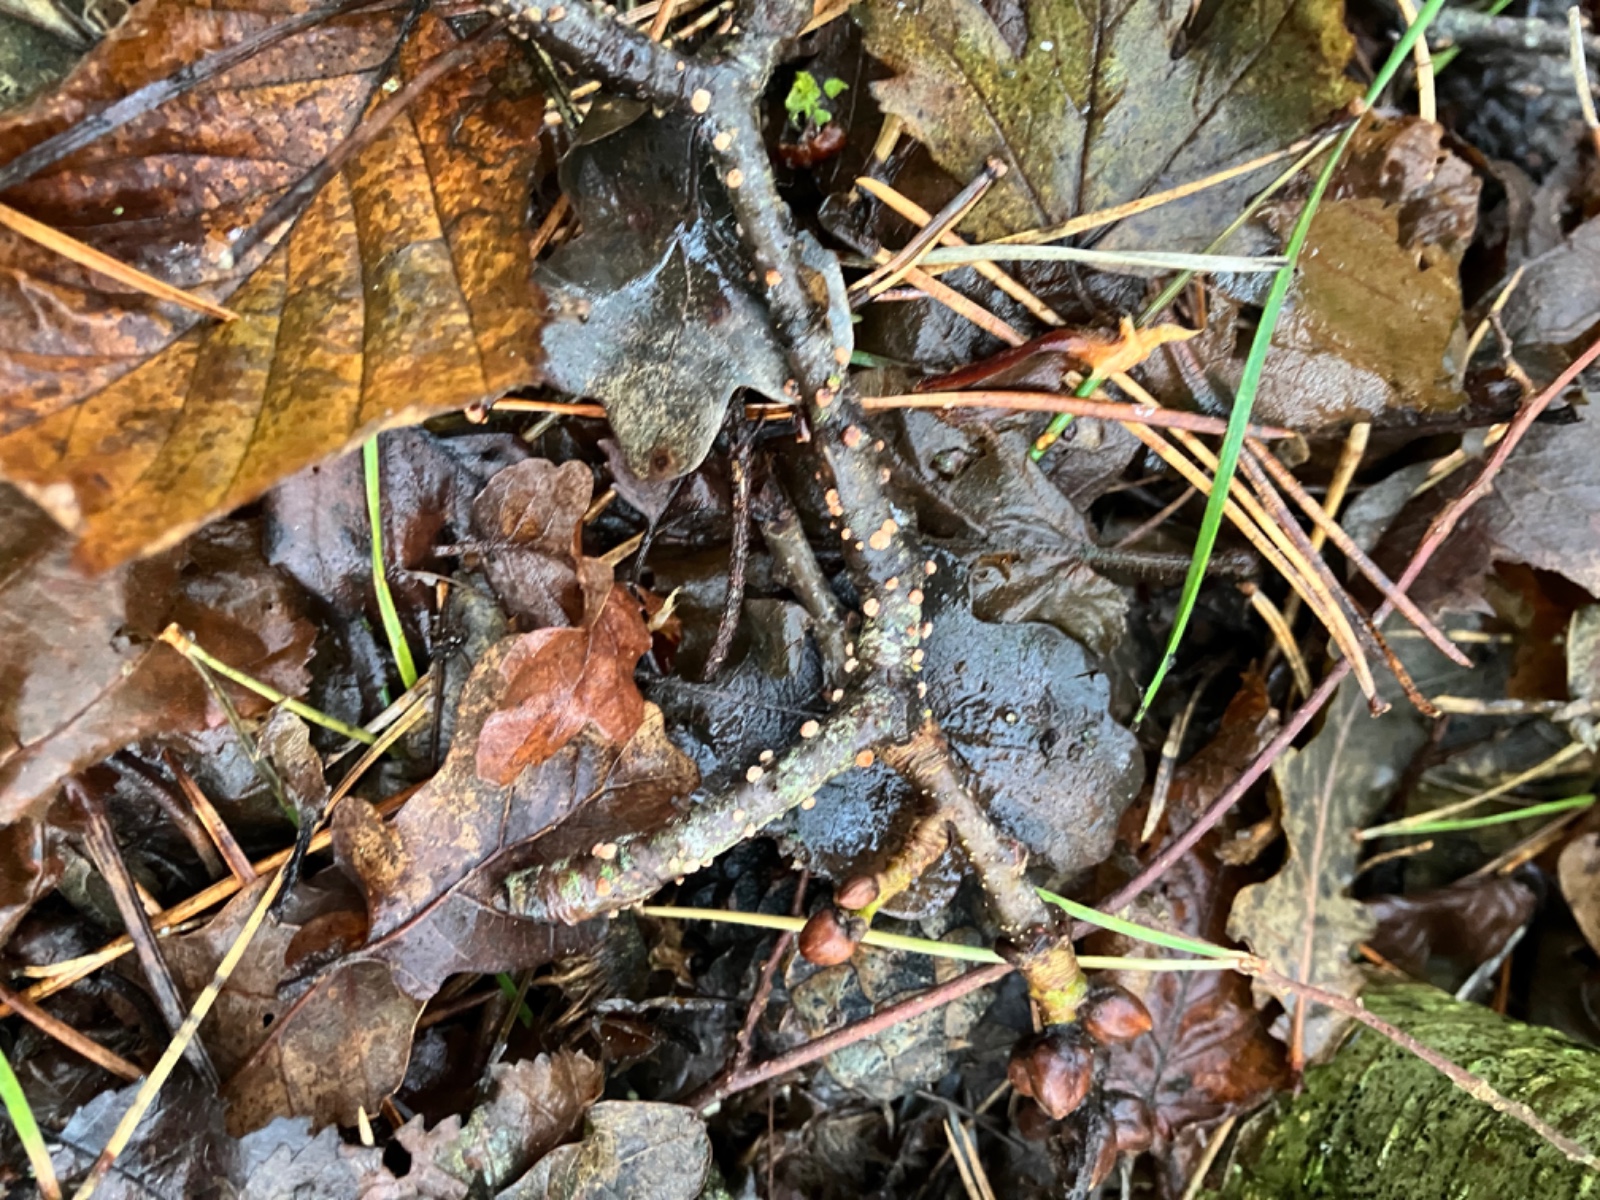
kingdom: Fungi
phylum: Ascomycota
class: Sordariomycetes
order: Hypocreales
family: Nectriaceae
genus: Nectria
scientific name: Nectria cinnabarina
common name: almindelig cinnobersvamp
